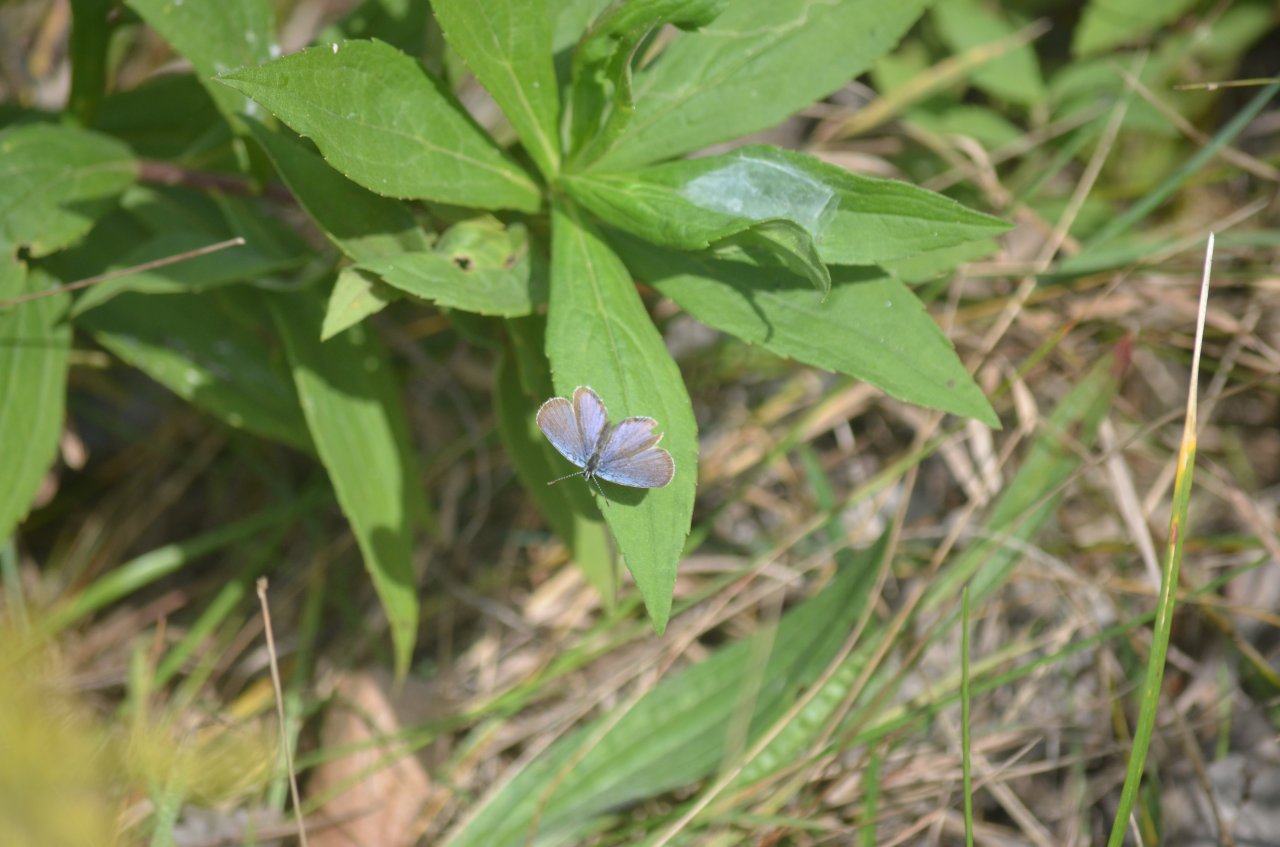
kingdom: Animalia
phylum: Arthropoda
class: Insecta
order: Lepidoptera
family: Lycaenidae
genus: Elkalyce
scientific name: Elkalyce comyntas
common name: Eastern Tailed-Blue
